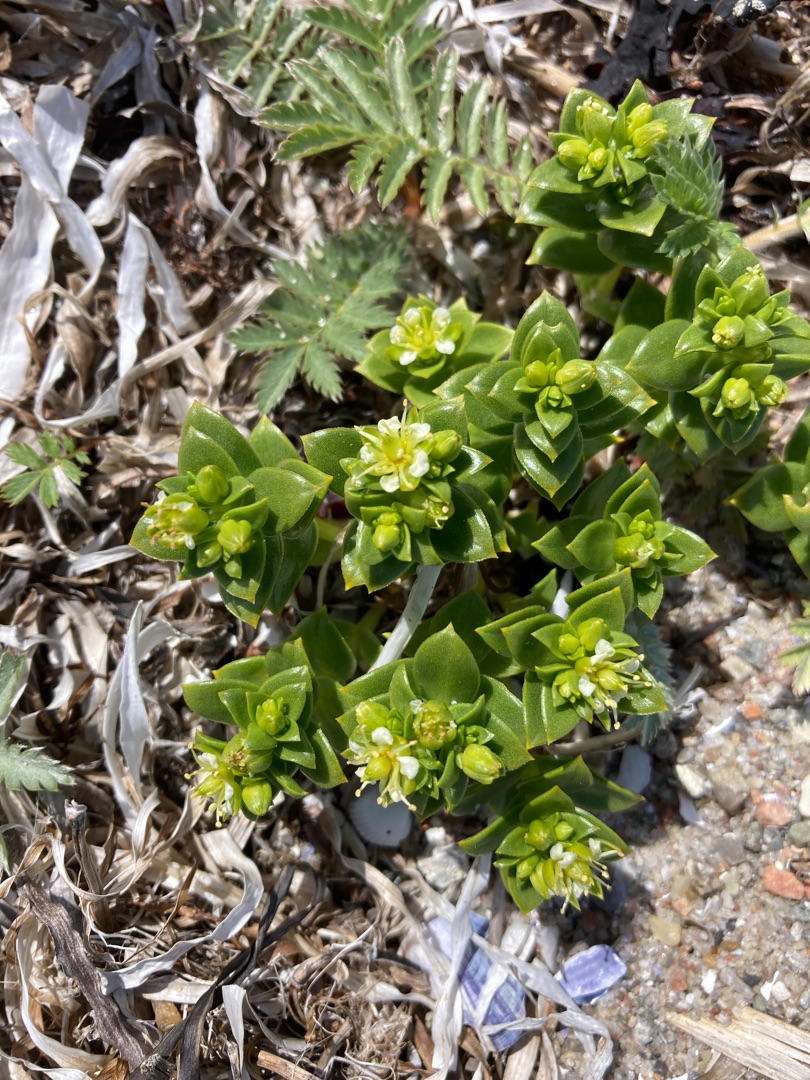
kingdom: Plantae
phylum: Tracheophyta
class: Magnoliopsida
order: Caryophyllales
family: Caryophyllaceae
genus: Honckenya
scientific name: Honckenya peploides
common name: Strandarve
